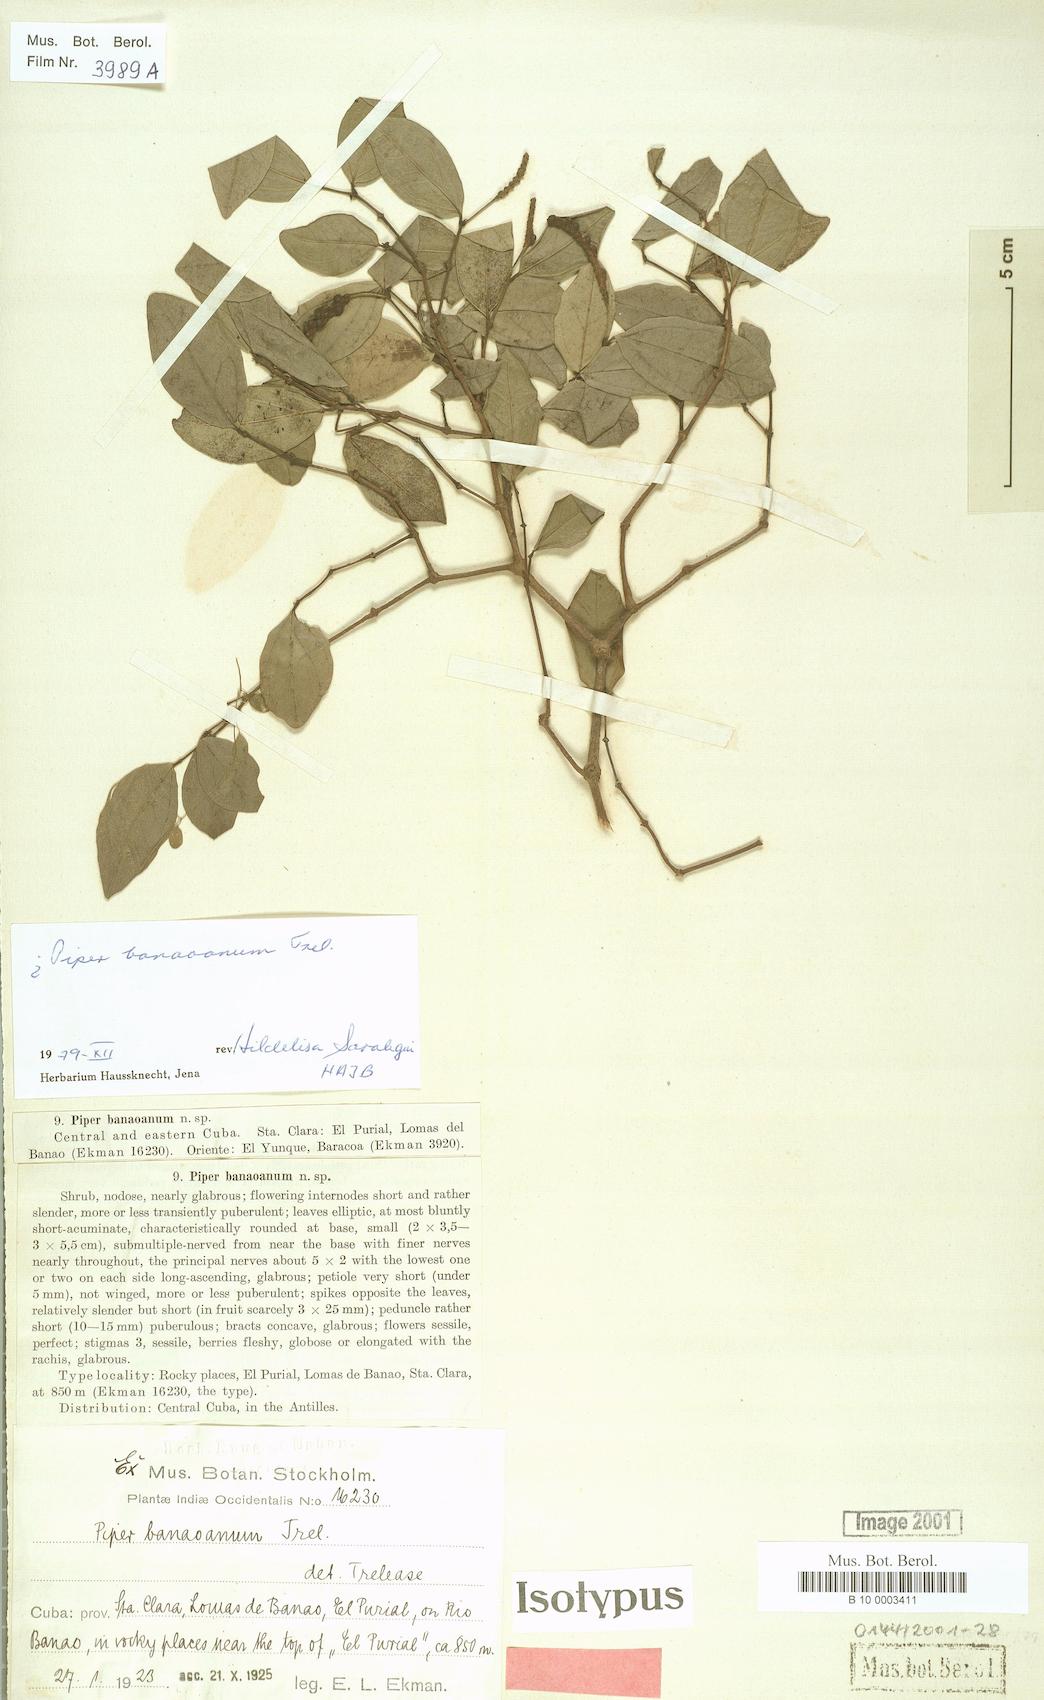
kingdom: Plantae
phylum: Tracheophyta
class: Magnoliopsida
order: Piperales
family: Piperaceae
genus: Piper
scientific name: Piper sphaerocarpum
